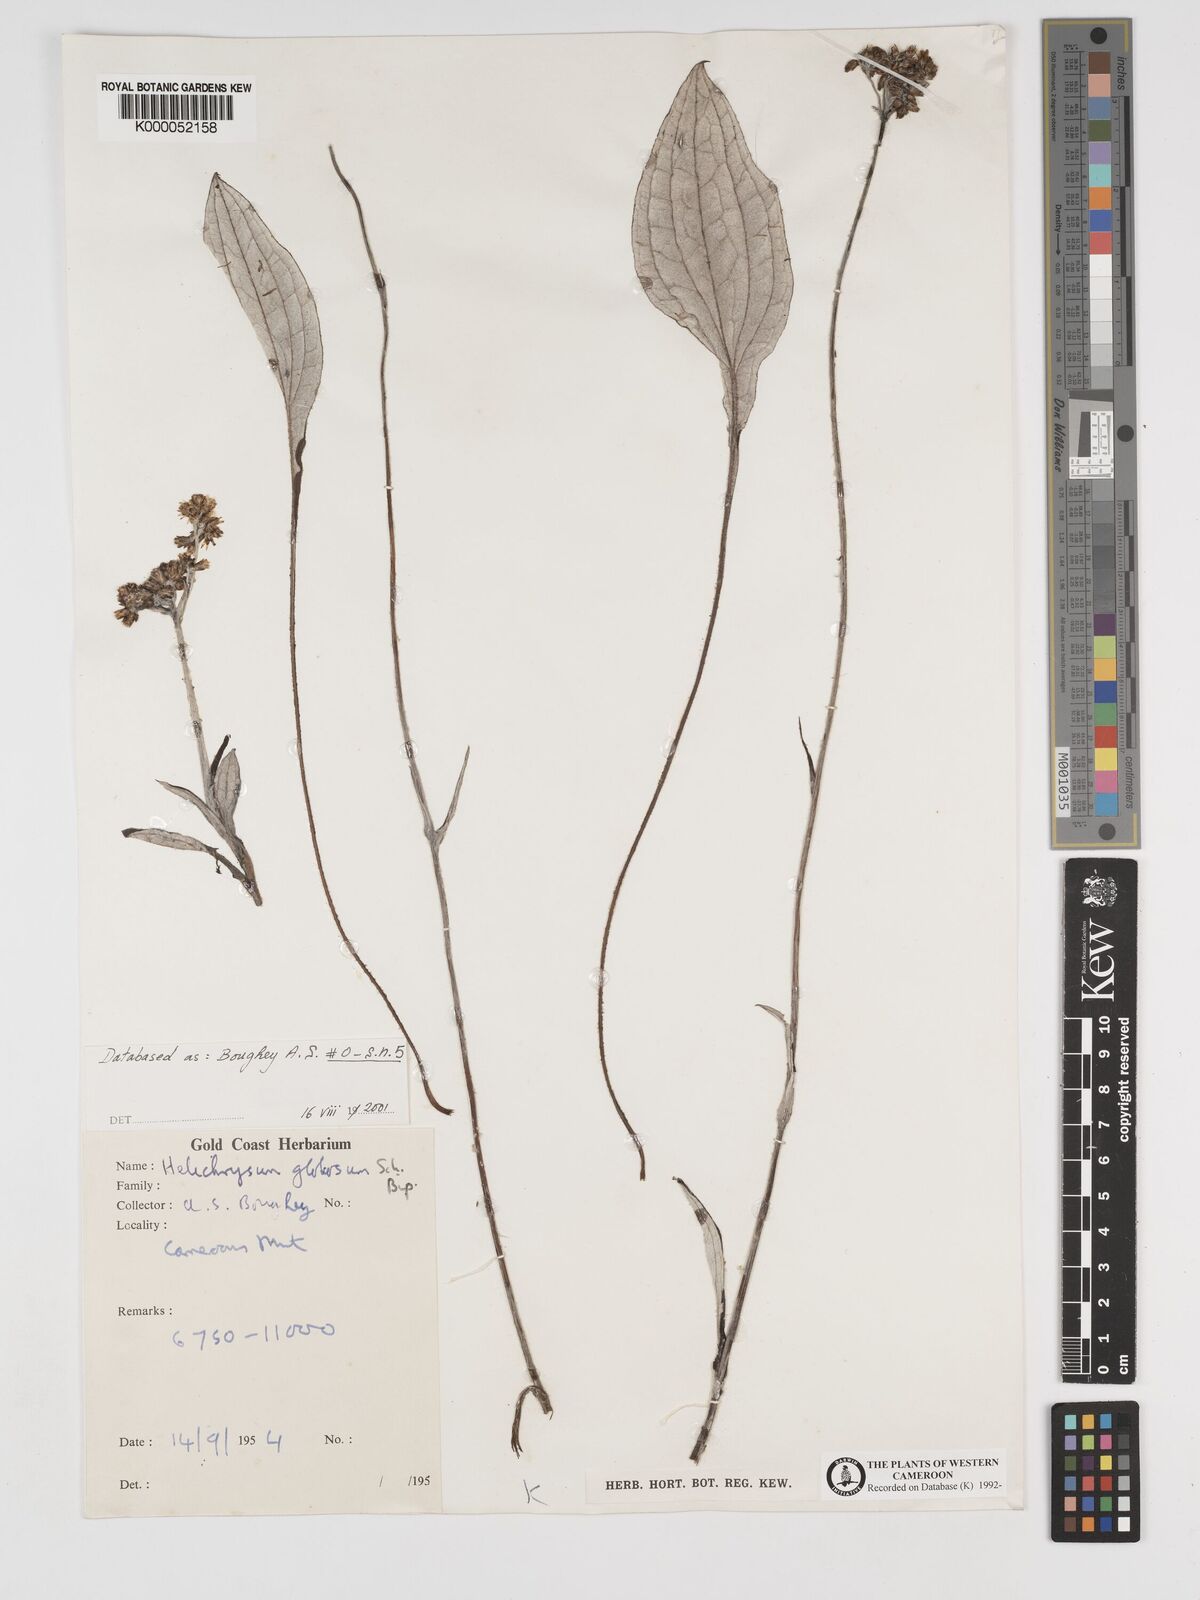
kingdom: Plantae
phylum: Tracheophyta
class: Magnoliopsida
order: Asterales
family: Asteraceae
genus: Helichrysum
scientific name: Helichrysum
